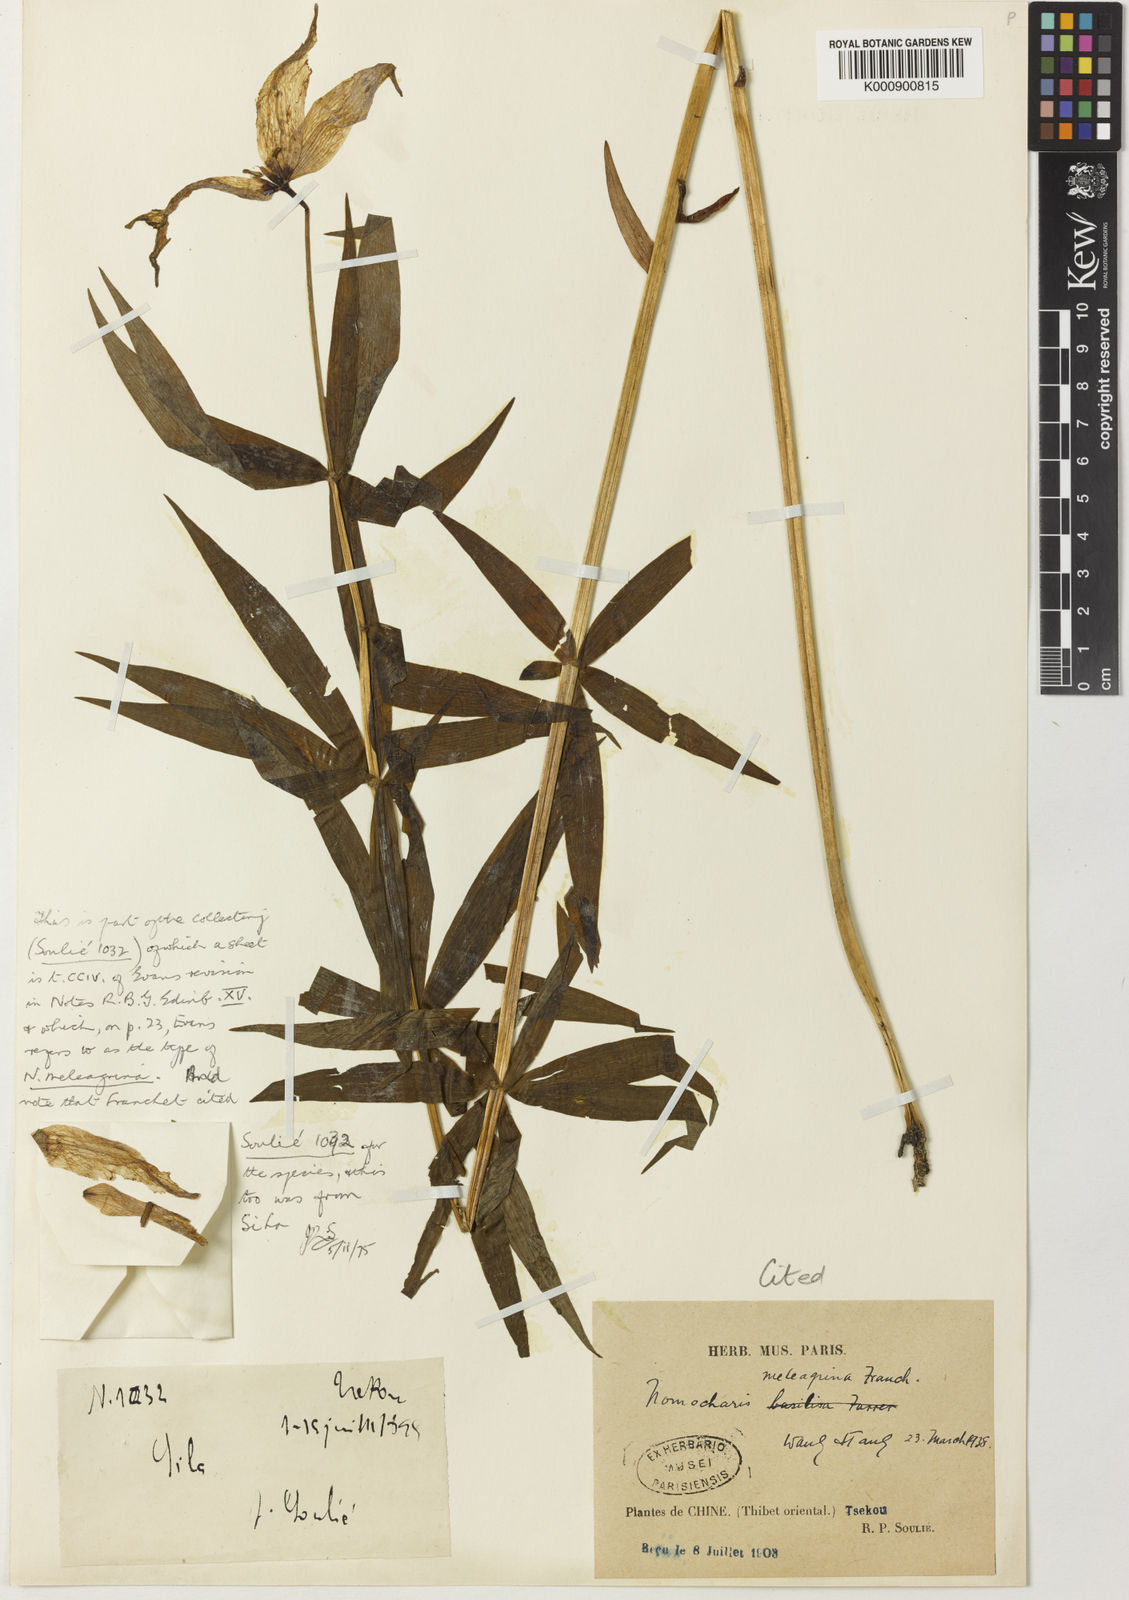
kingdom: Plantae
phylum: Tracheophyta
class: Liliopsida
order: Liliales
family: Liliaceae
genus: Lilium
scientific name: Lilium meleagrina
